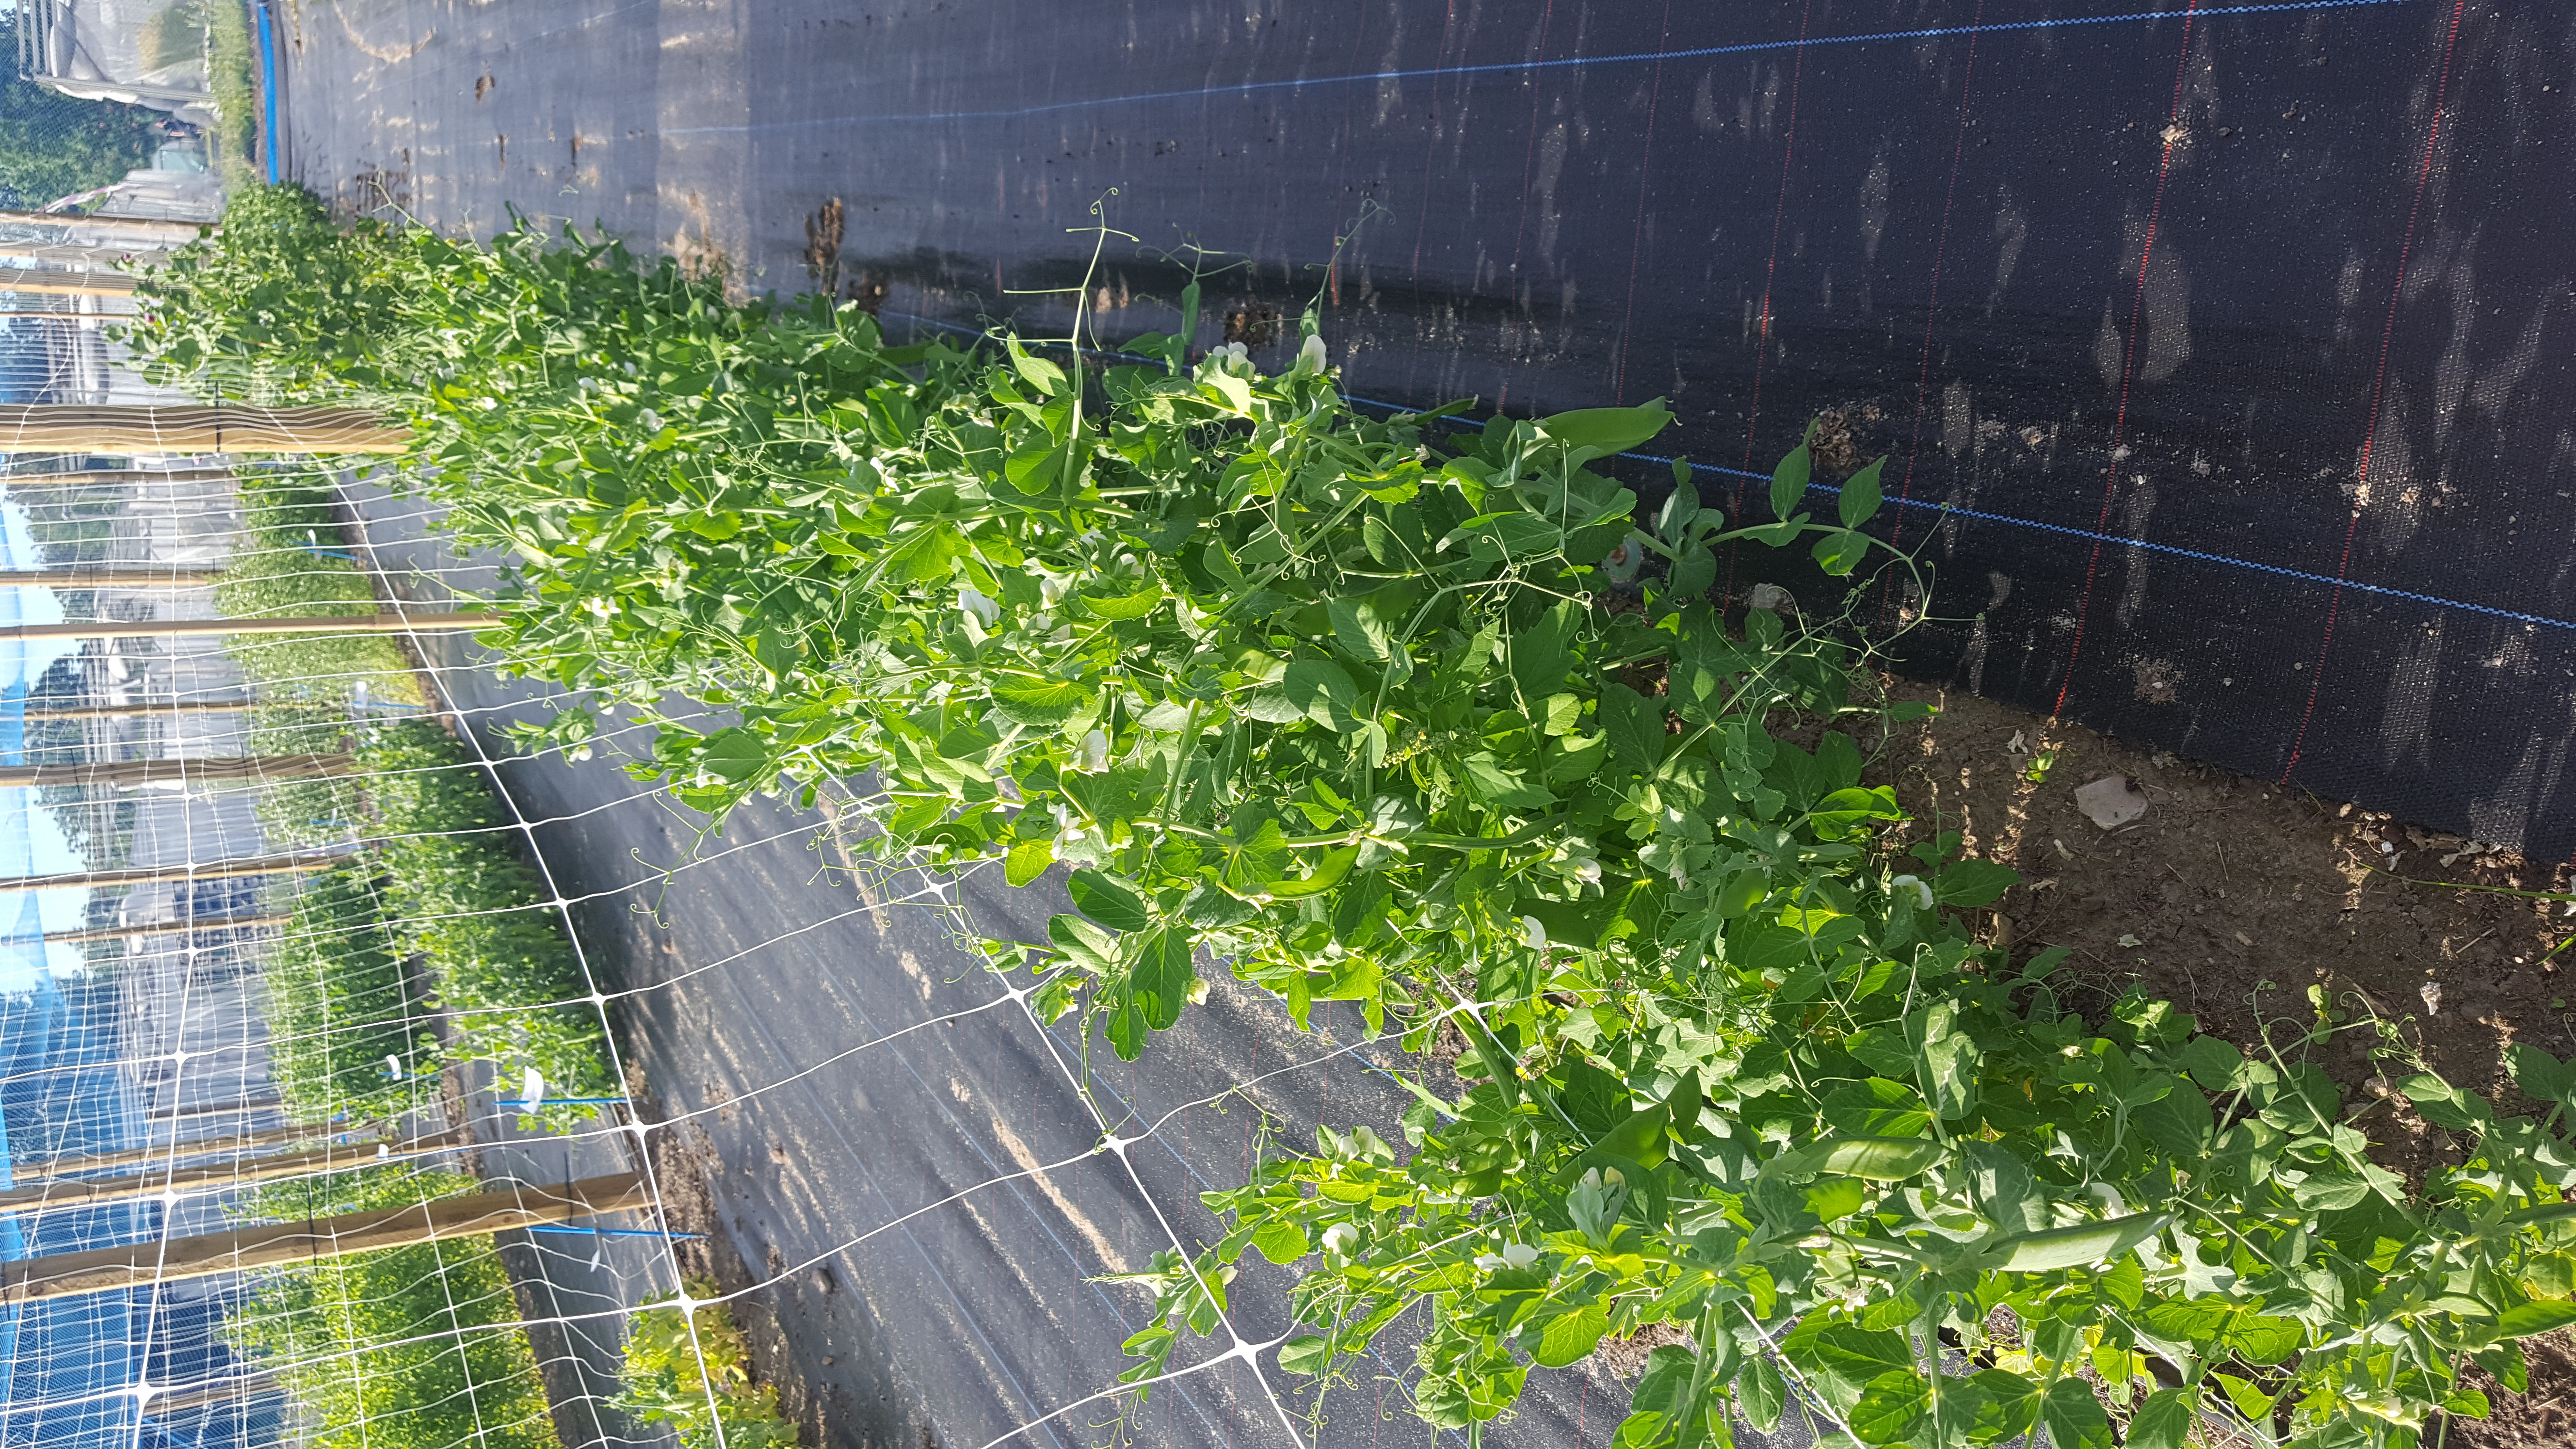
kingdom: Plantae
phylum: Tracheophyta
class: Magnoliopsida
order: Fabales
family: Fabaceae
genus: Lathyrus
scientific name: Lathyrus oleraceus
